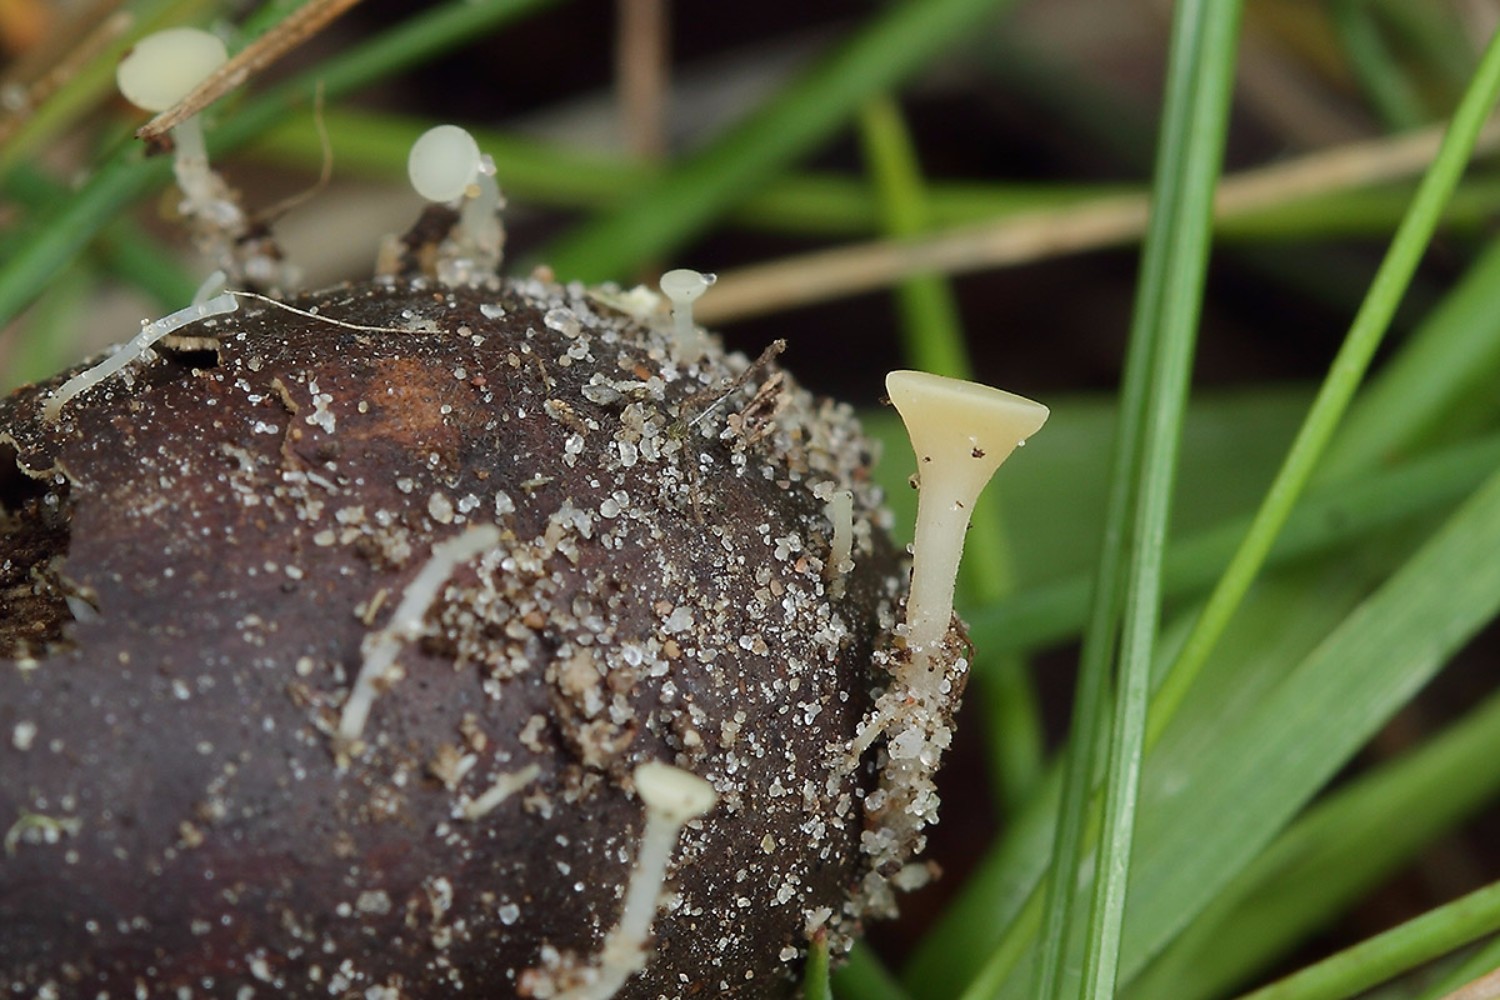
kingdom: Fungi
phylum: Ascomycota
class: Leotiomycetes
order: Helotiales
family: Helotiaceae
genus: Hymenoscyphus
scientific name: Hymenoscyphus fructigenus
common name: frugt-stilkskive
